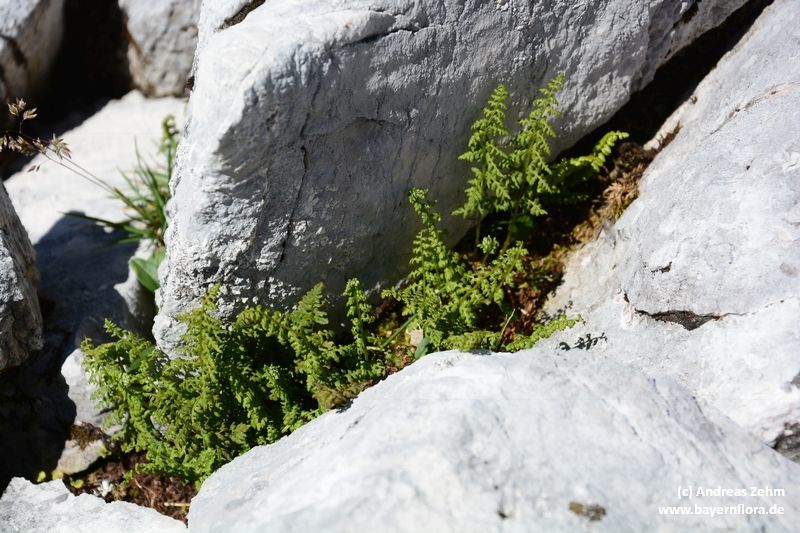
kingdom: Plantae
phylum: Tracheophyta
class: Polypodiopsida
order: Polypodiales
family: Cystopteridaceae
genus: Cystopteris
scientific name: Cystopteris alpina
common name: Alpine bladder-fern
